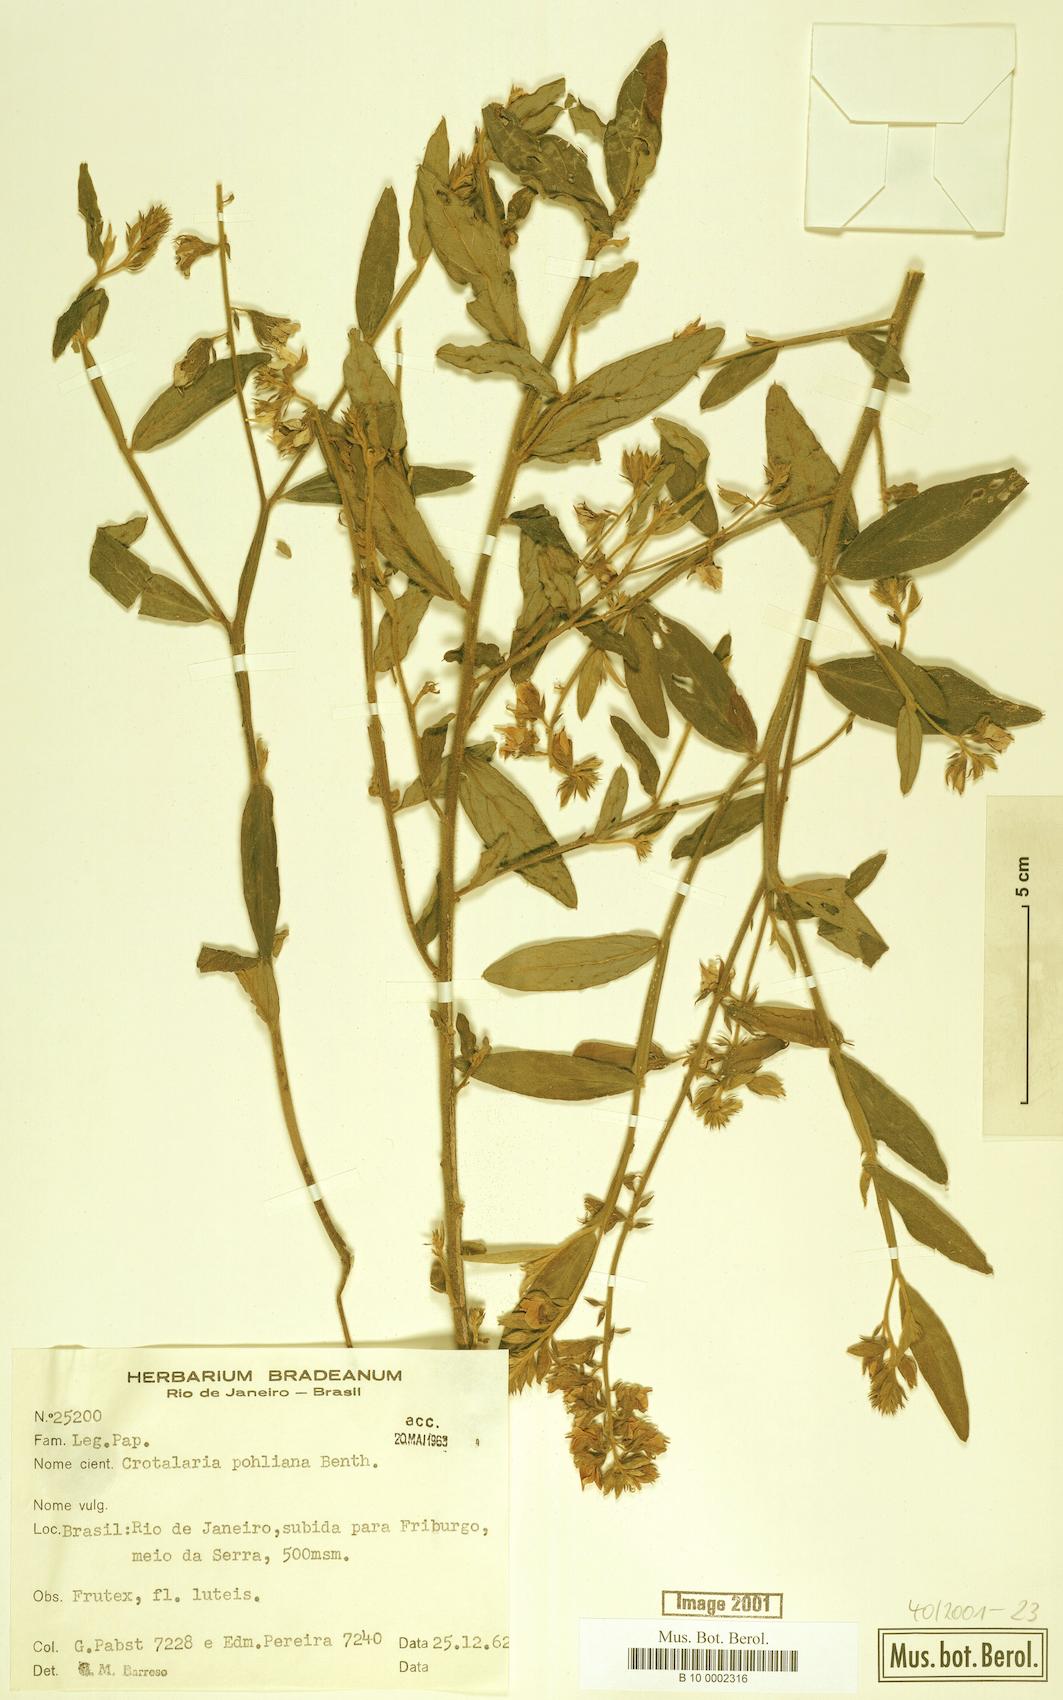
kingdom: Plantae
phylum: Tracheophyta
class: Magnoliopsida
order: Fabales
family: Fabaceae
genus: Crotalaria
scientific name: Crotalaria breviflora
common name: Short-flower crotalaria
